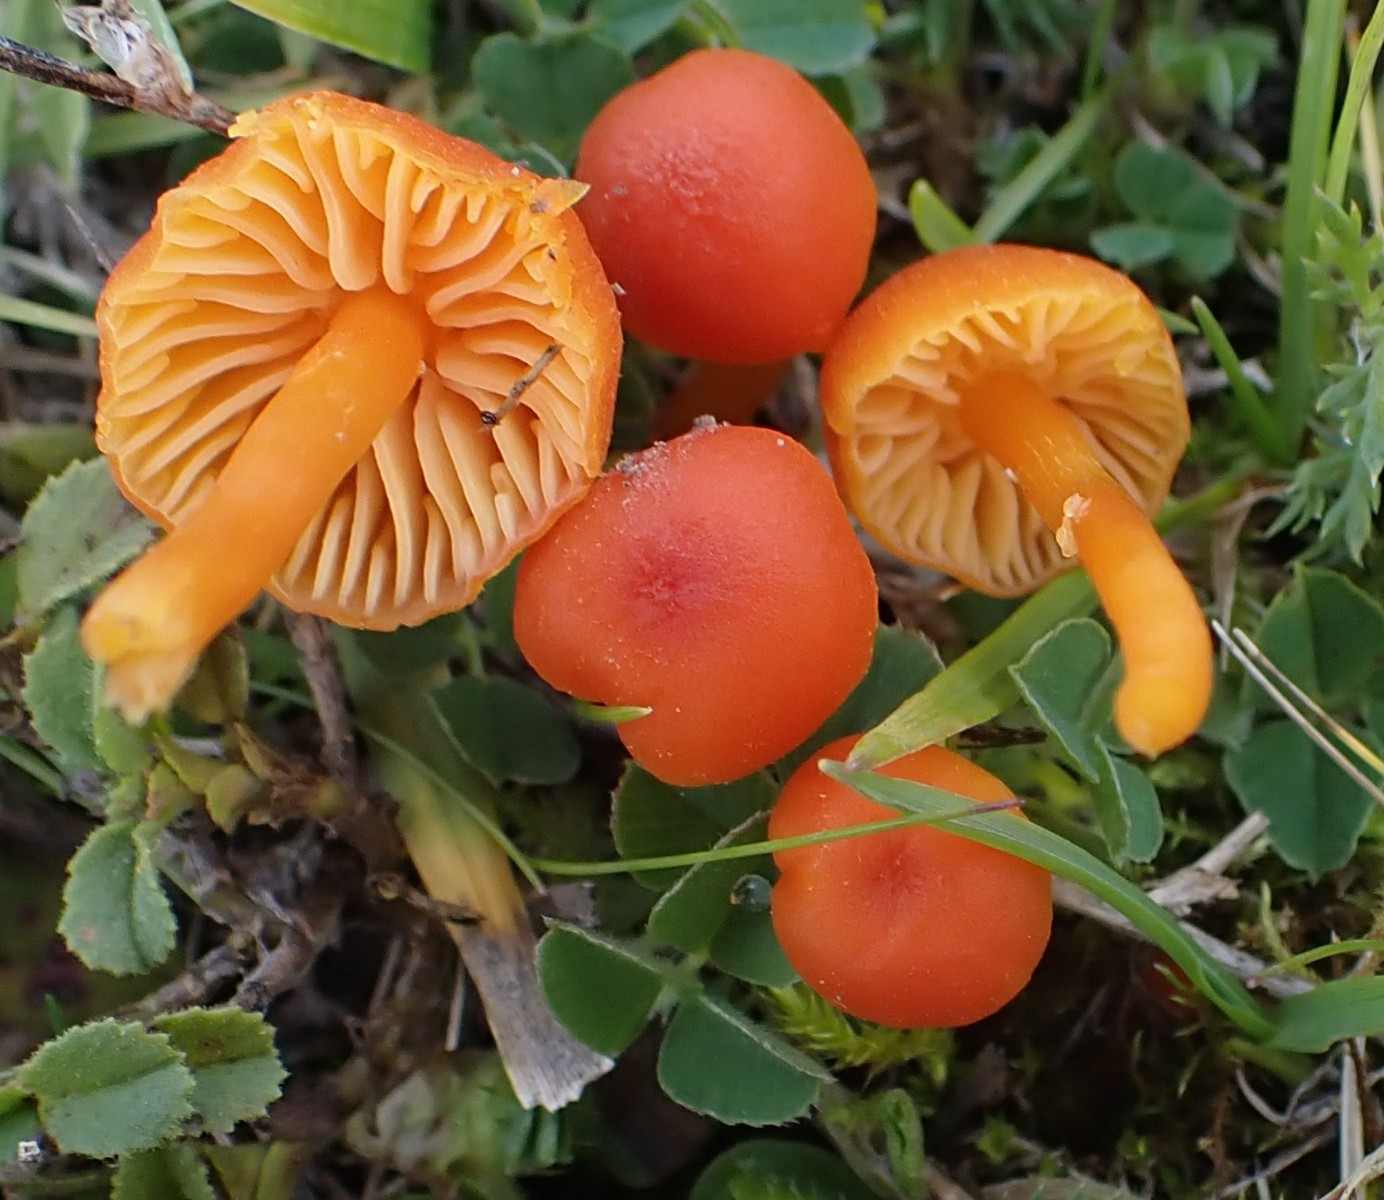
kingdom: Fungi
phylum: Basidiomycota
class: Agaricomycetes
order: Agaricales
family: Hygrophoraceae
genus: Hygrocybe
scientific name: Hygrocybe calciphila
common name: kalk-vokshat
